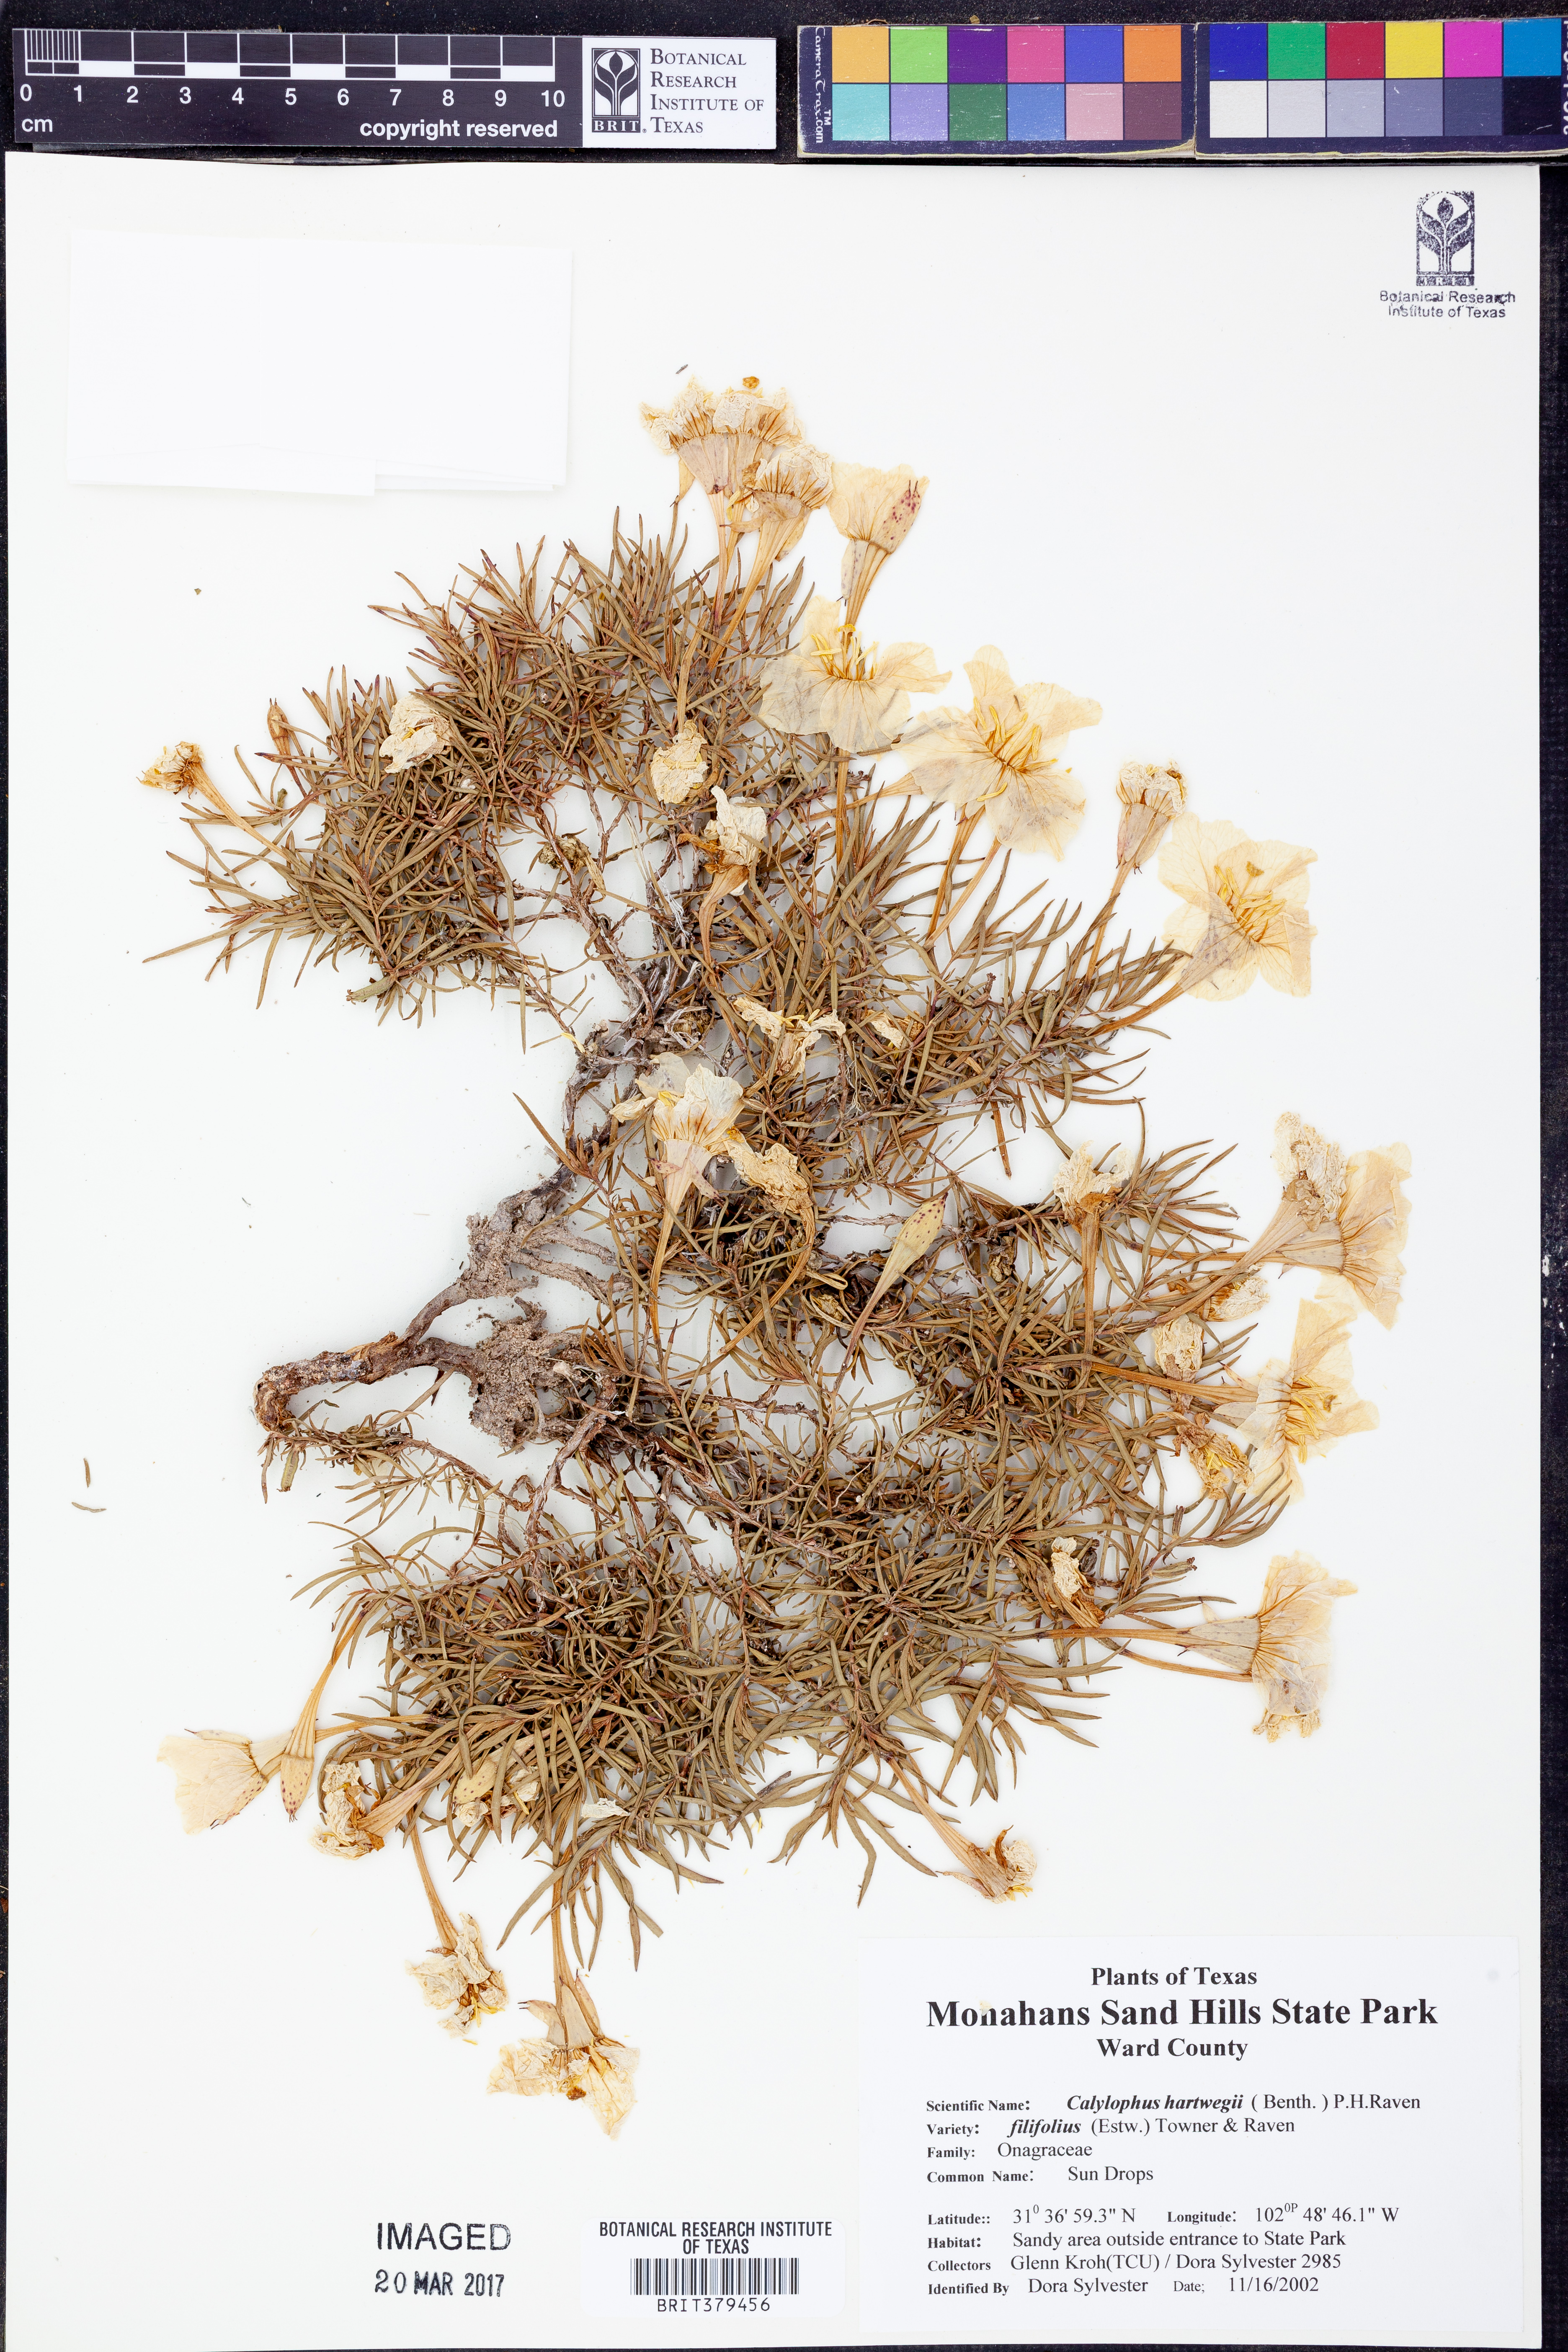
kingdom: Plantae
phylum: Tracheophyta
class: Magnoliopsida
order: Myrtales
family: Onagraceae
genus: Oenothera
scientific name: Oenothera hartwegii
